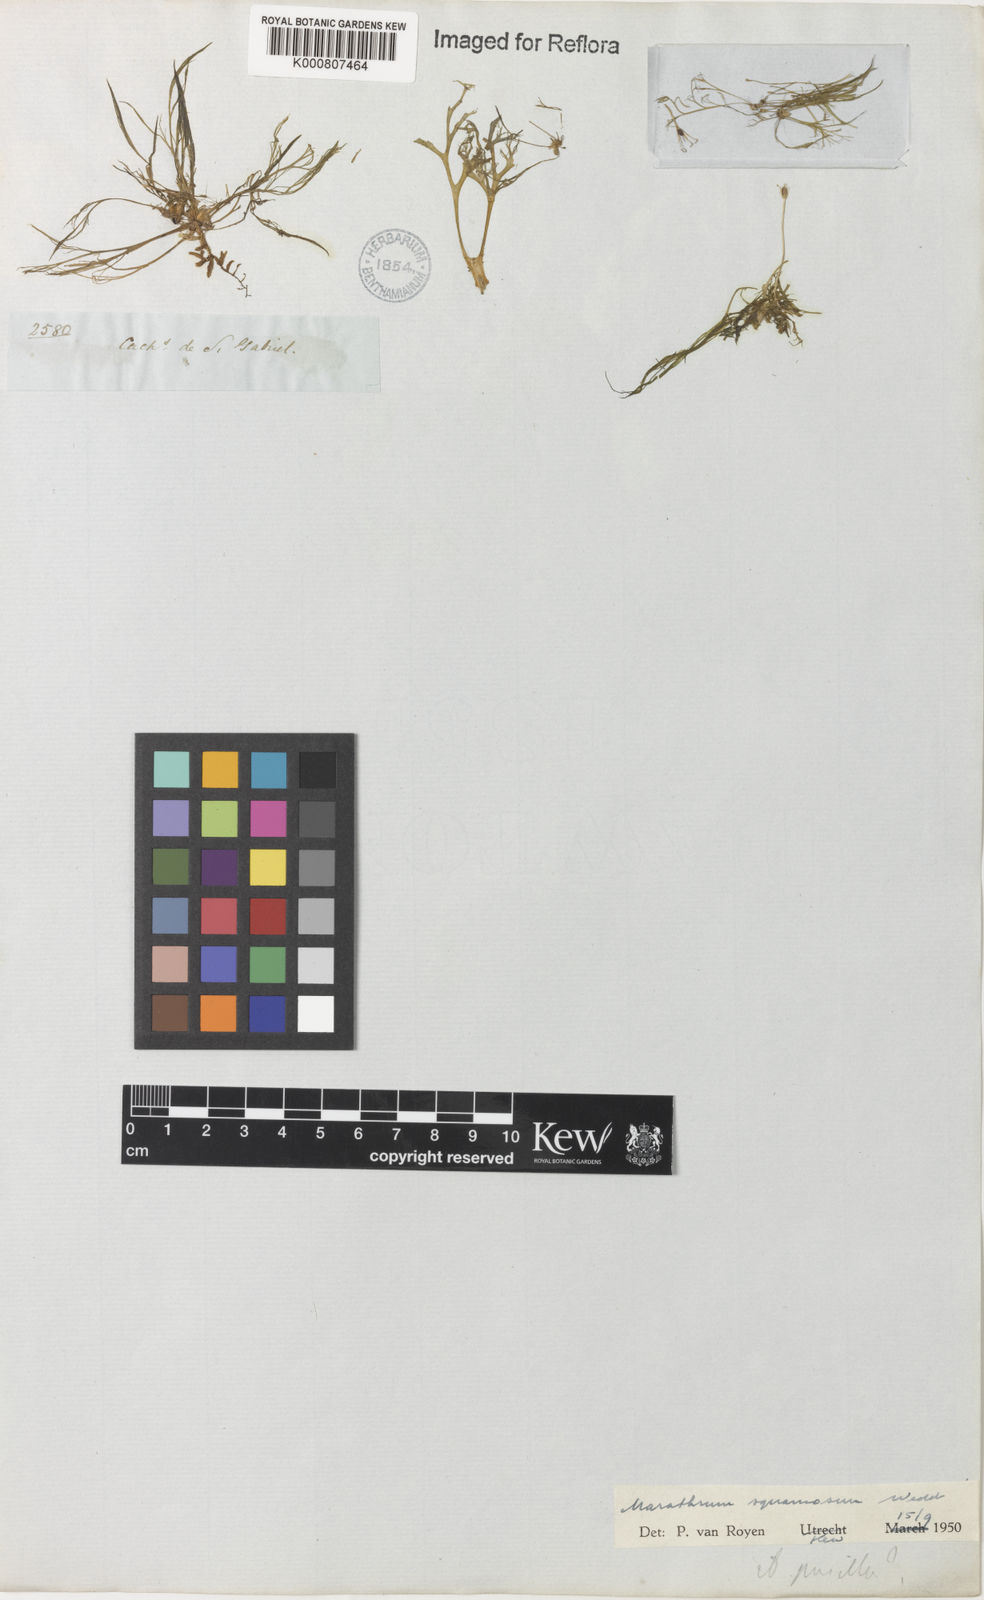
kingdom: Plantae
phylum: Tracheophyta
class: Magnoliopsida
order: Malpighiales
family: Podostemaceae
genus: Rhyncholacis
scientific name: Rhyncholacis squamosa
